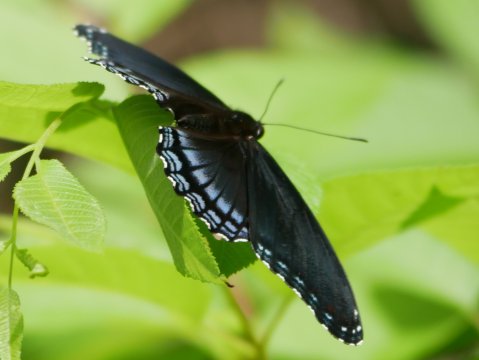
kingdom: Animalia
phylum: Arthropoda
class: Insecta
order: Lepidoptera
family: Nymphalidae
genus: Limenitis
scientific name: Limenitis arthemis
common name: Red-spotted Admiral
